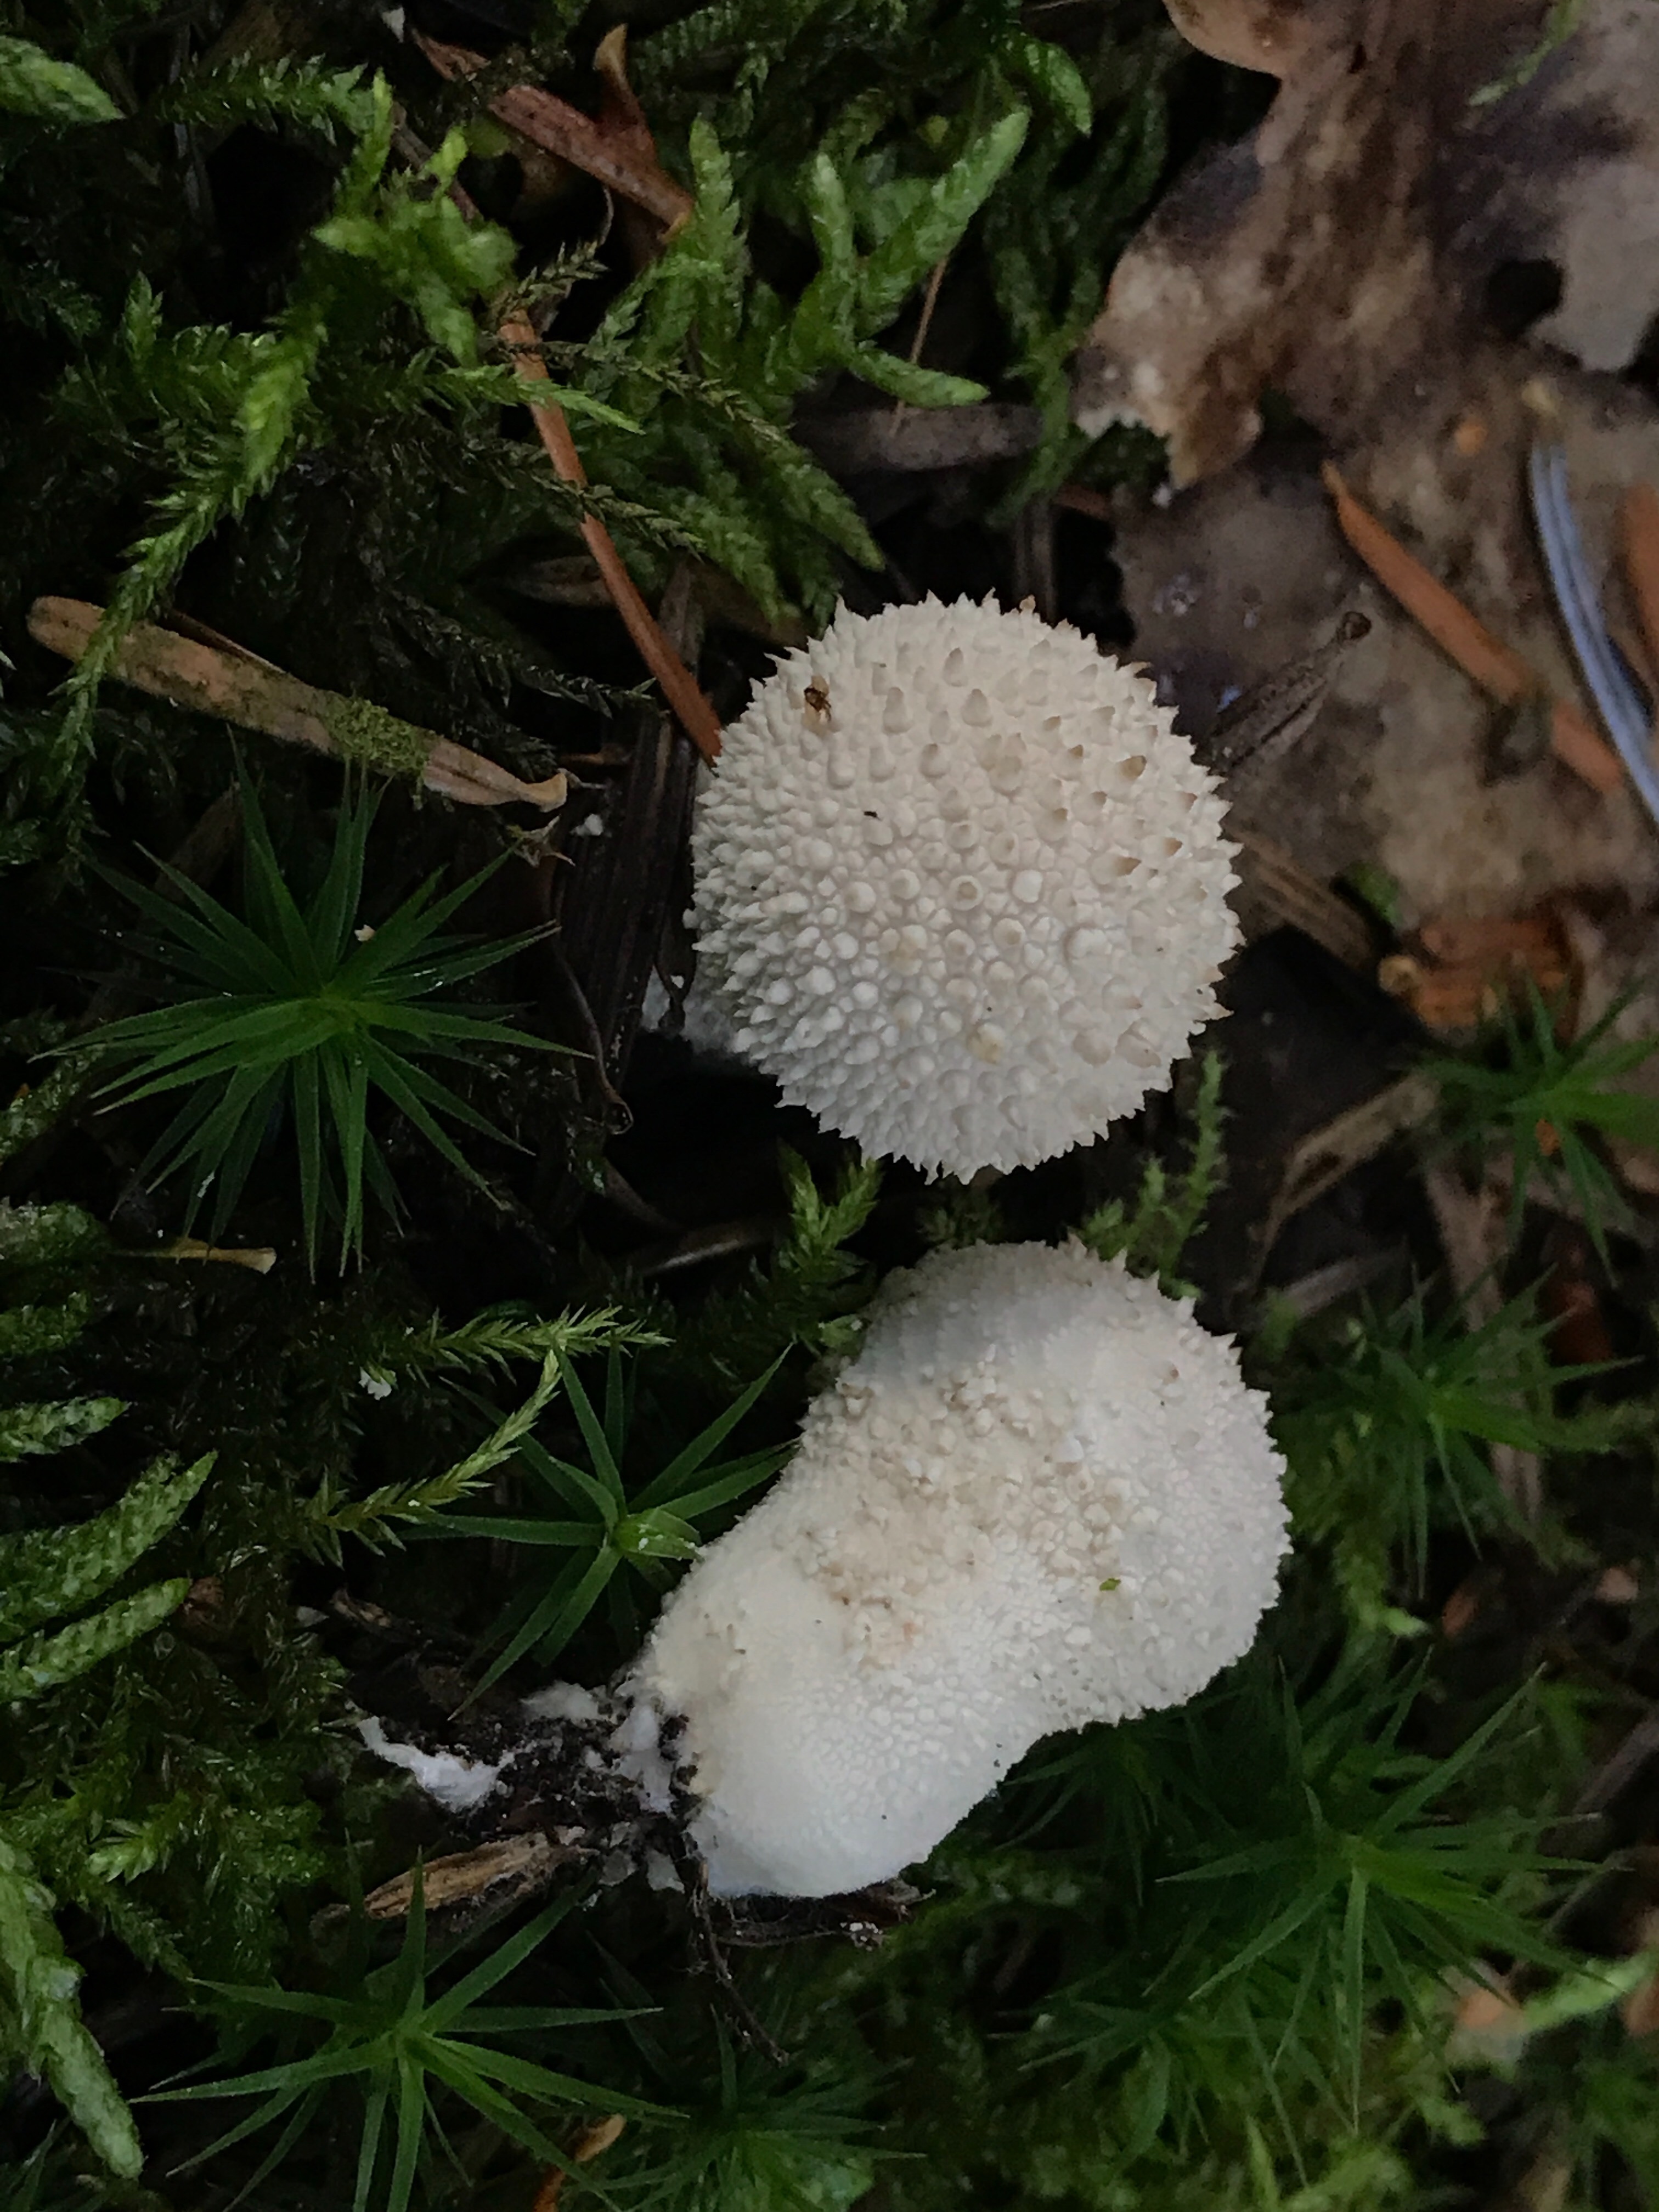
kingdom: Fungi
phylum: Basidiomycota
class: Agaricomycetes
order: Agaricales
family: Lycoperdaceae
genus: Lycoperdon
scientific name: Lycoperdon perlatum
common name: krystal-støvbold
